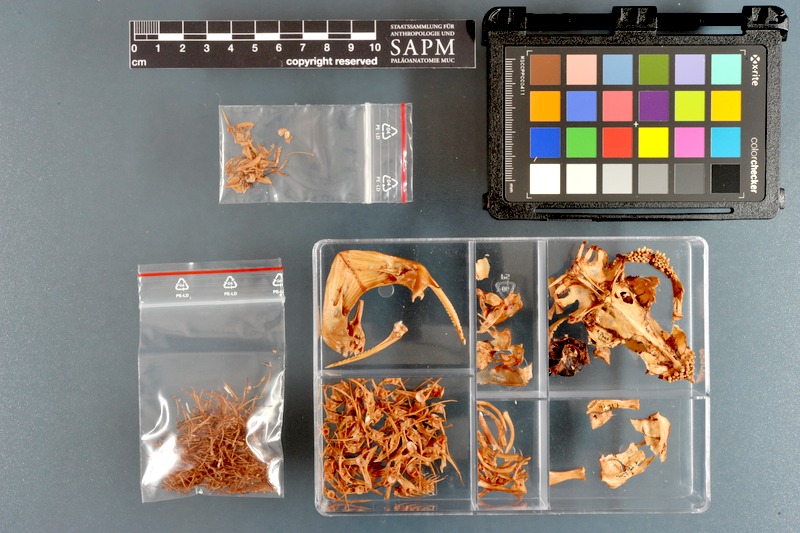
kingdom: Animalia
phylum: Chordata
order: Siluriformes
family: Plotosidae
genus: Plotosus
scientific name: Plotosus lineatus
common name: Striped eel catfish
